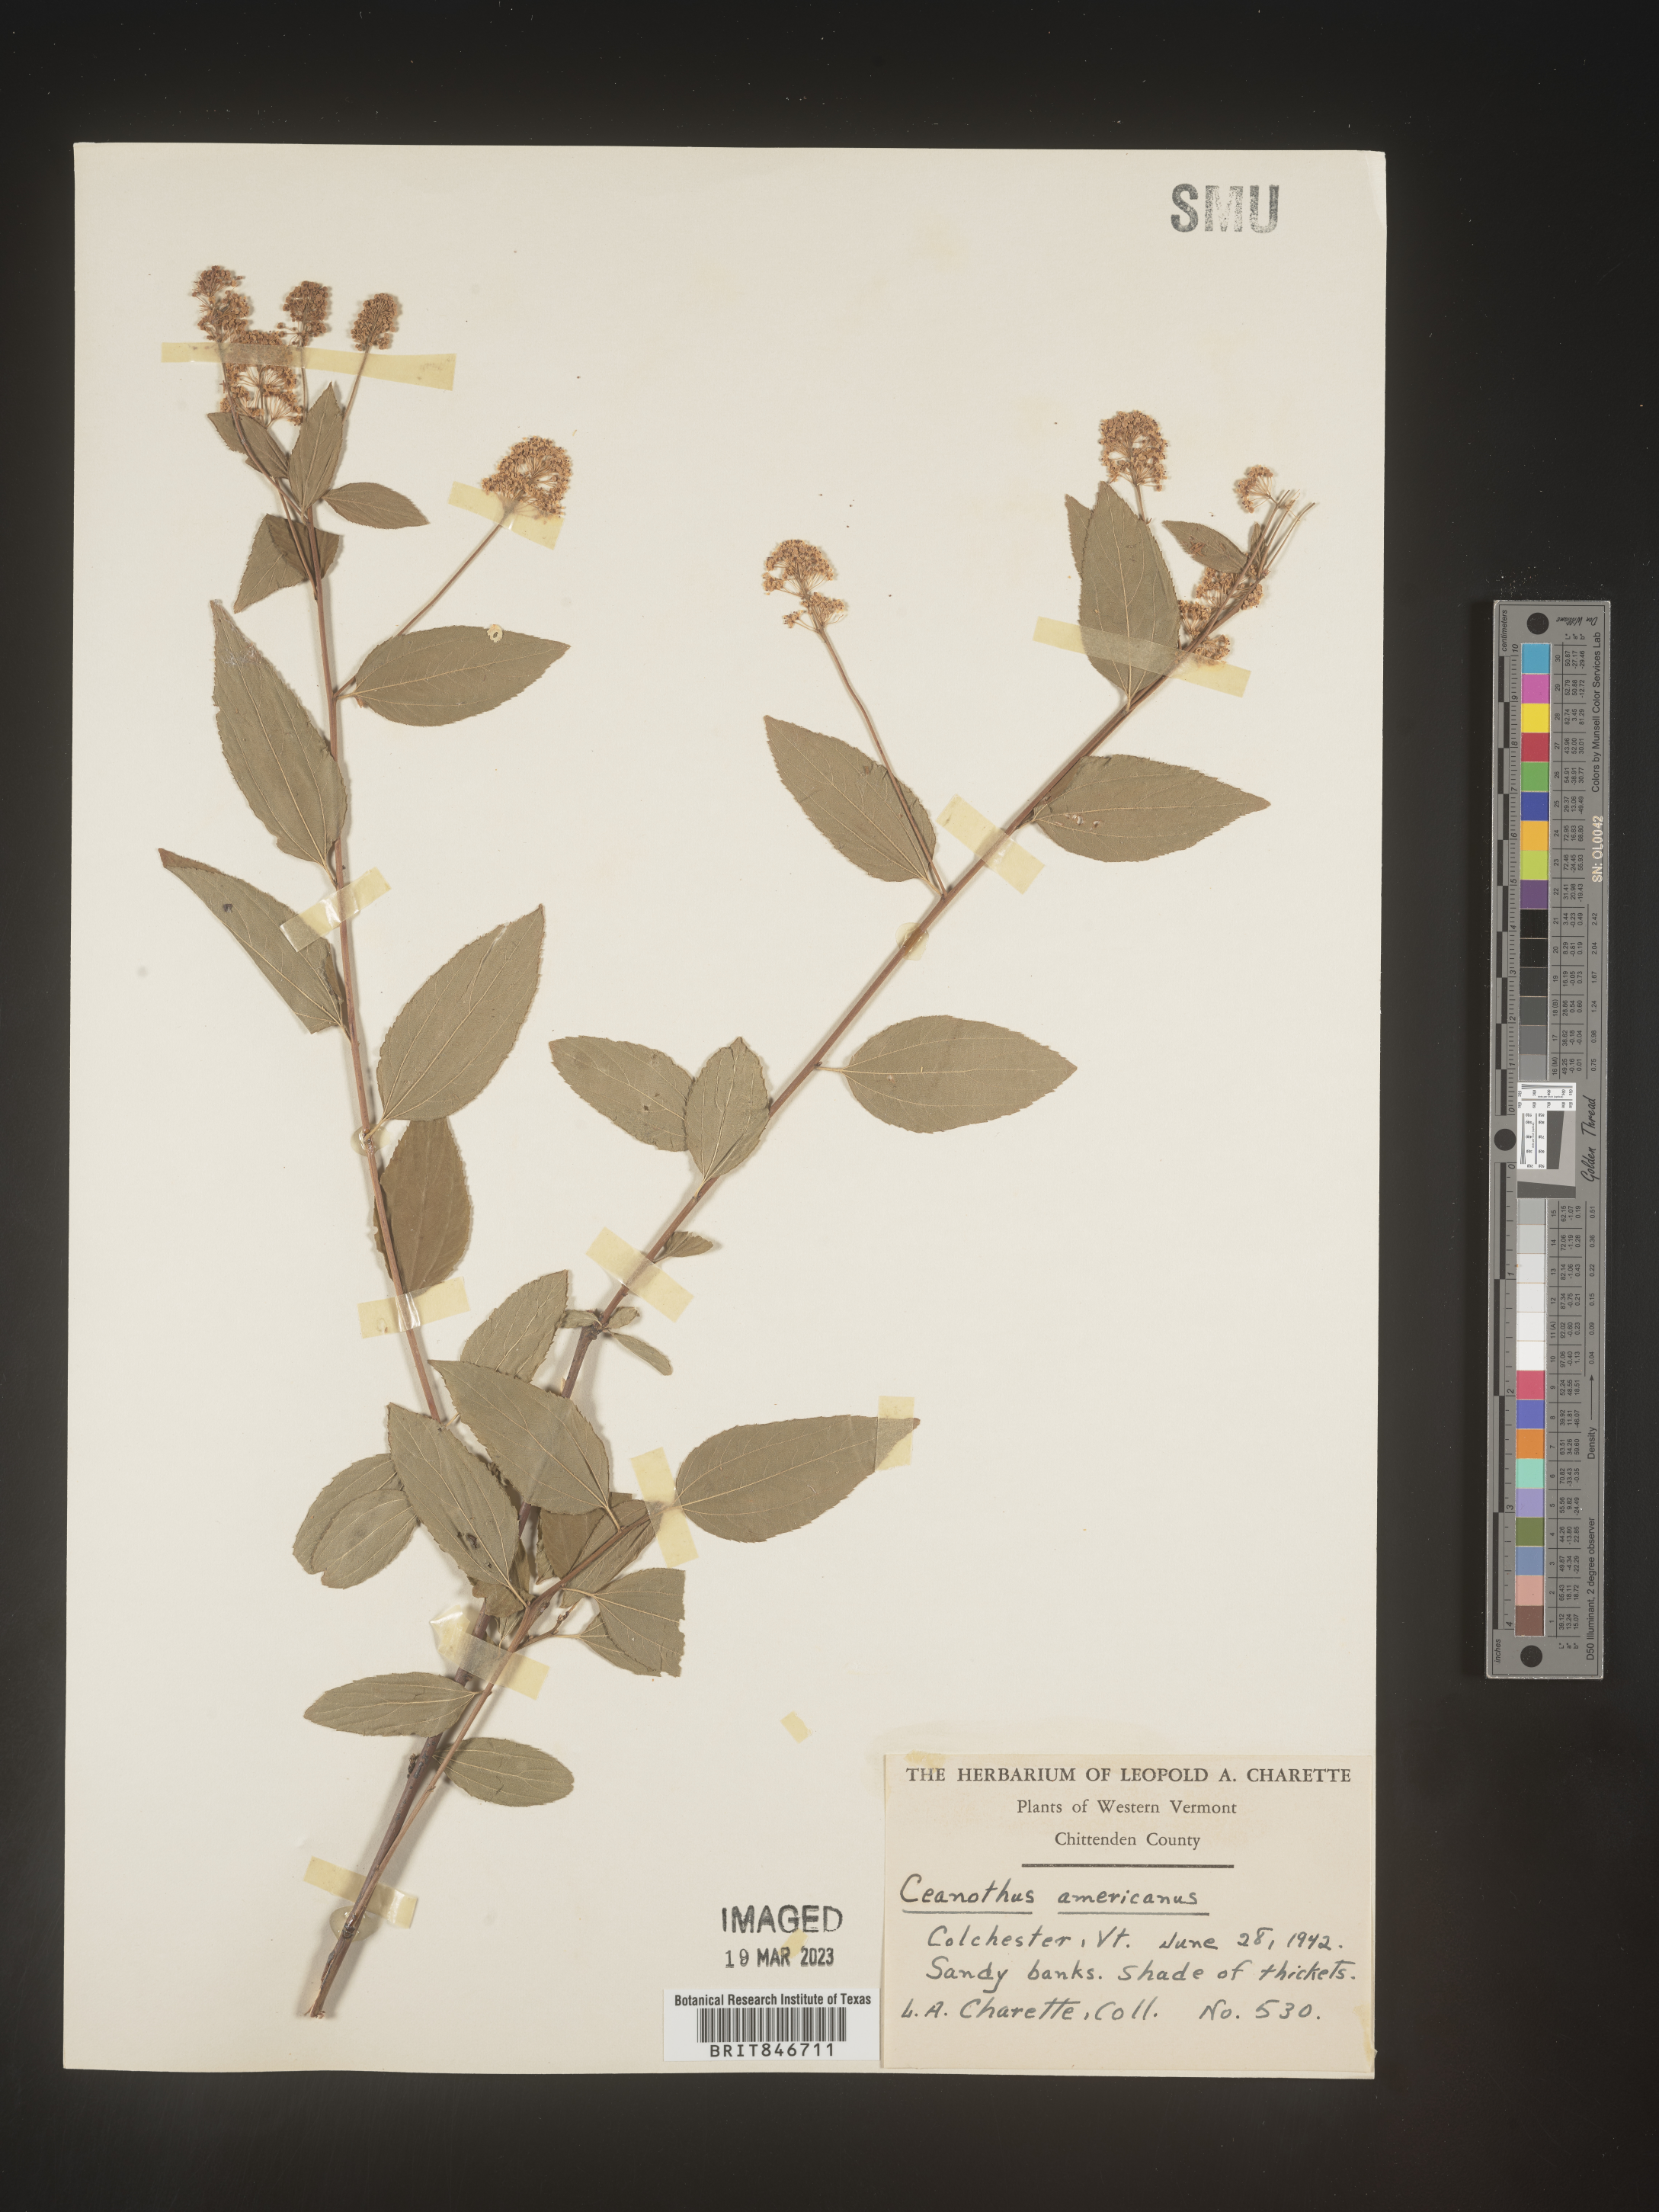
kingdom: Plantae
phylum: Tracheophyta
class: Magnoliopsida
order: Rosales
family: Rhamnaceae
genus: Ceanothus
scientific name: Ceanothus americanus
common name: Redroot
